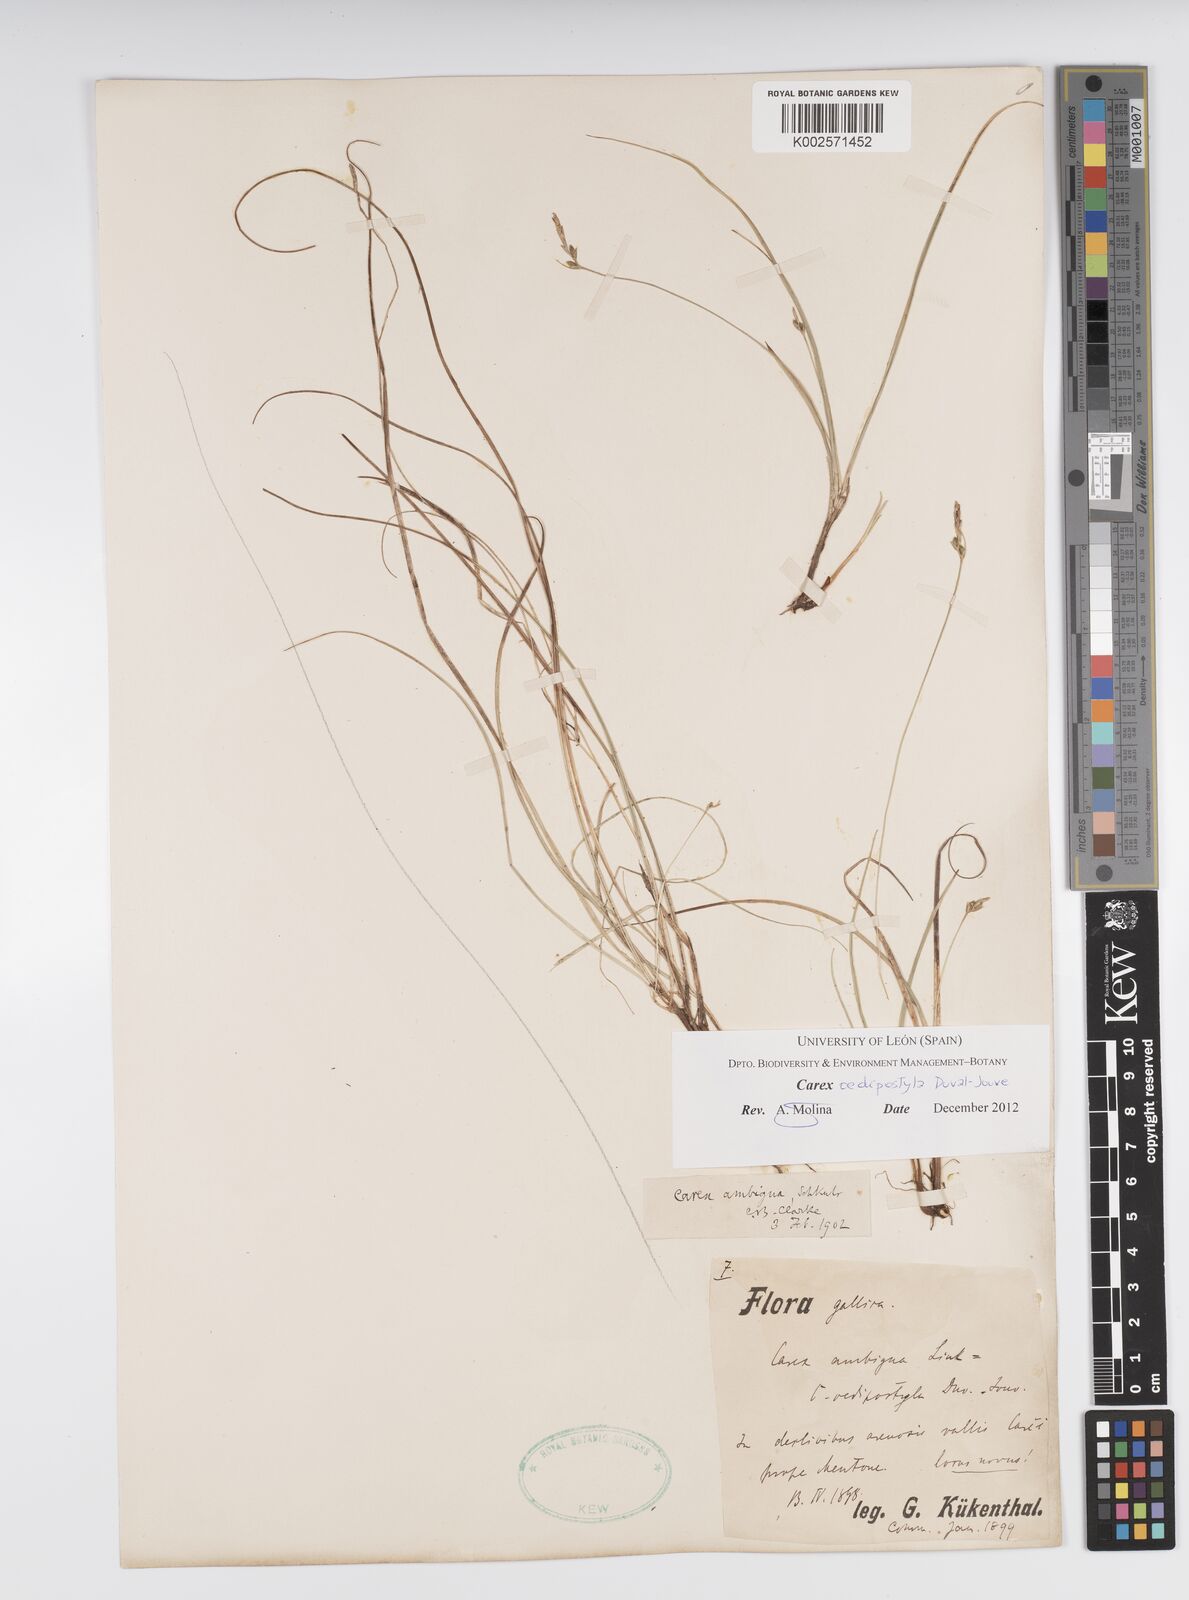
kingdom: Plantae
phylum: Tracheophyta
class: Liliopsida
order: Poales
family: Cyperaceae
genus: Carex
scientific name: Carex oedipostyla
